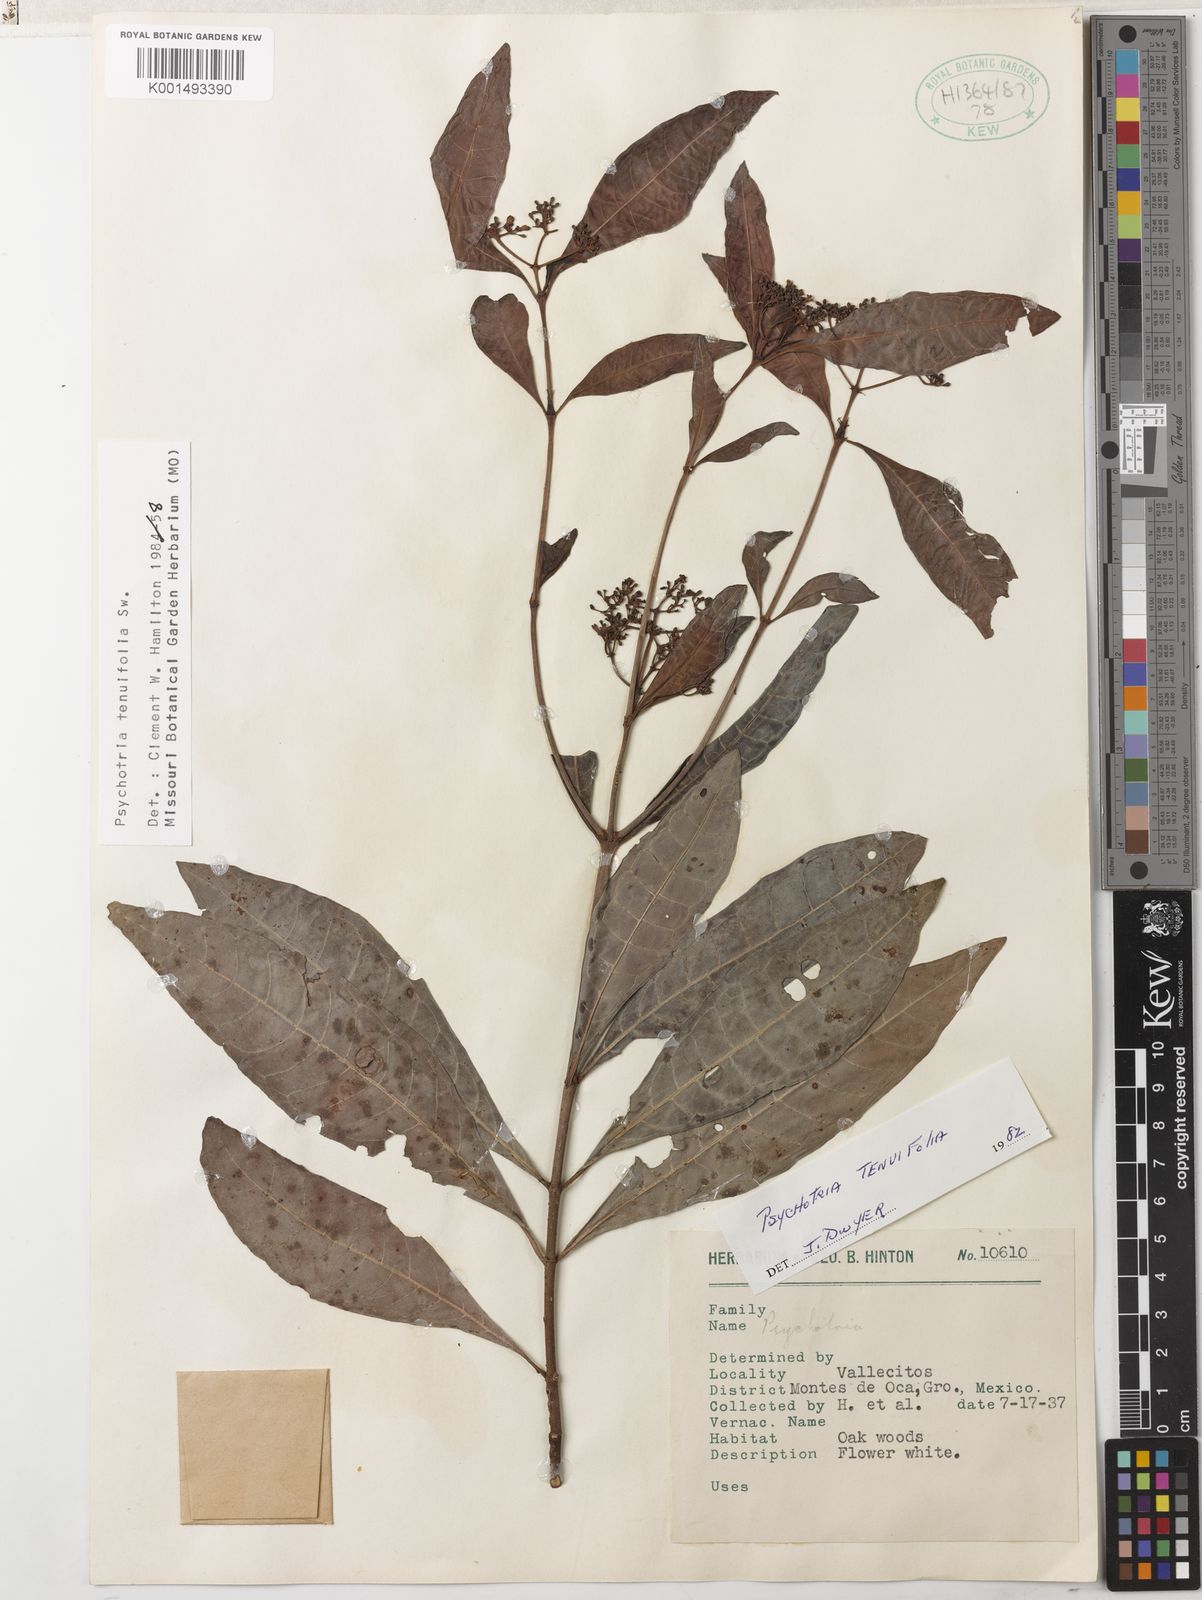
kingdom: Plantae
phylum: Tracheophyta
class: Magnoliopsida
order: Gentianales
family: Rubiaceae
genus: Psychotria
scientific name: Psychotria tenuifolia
